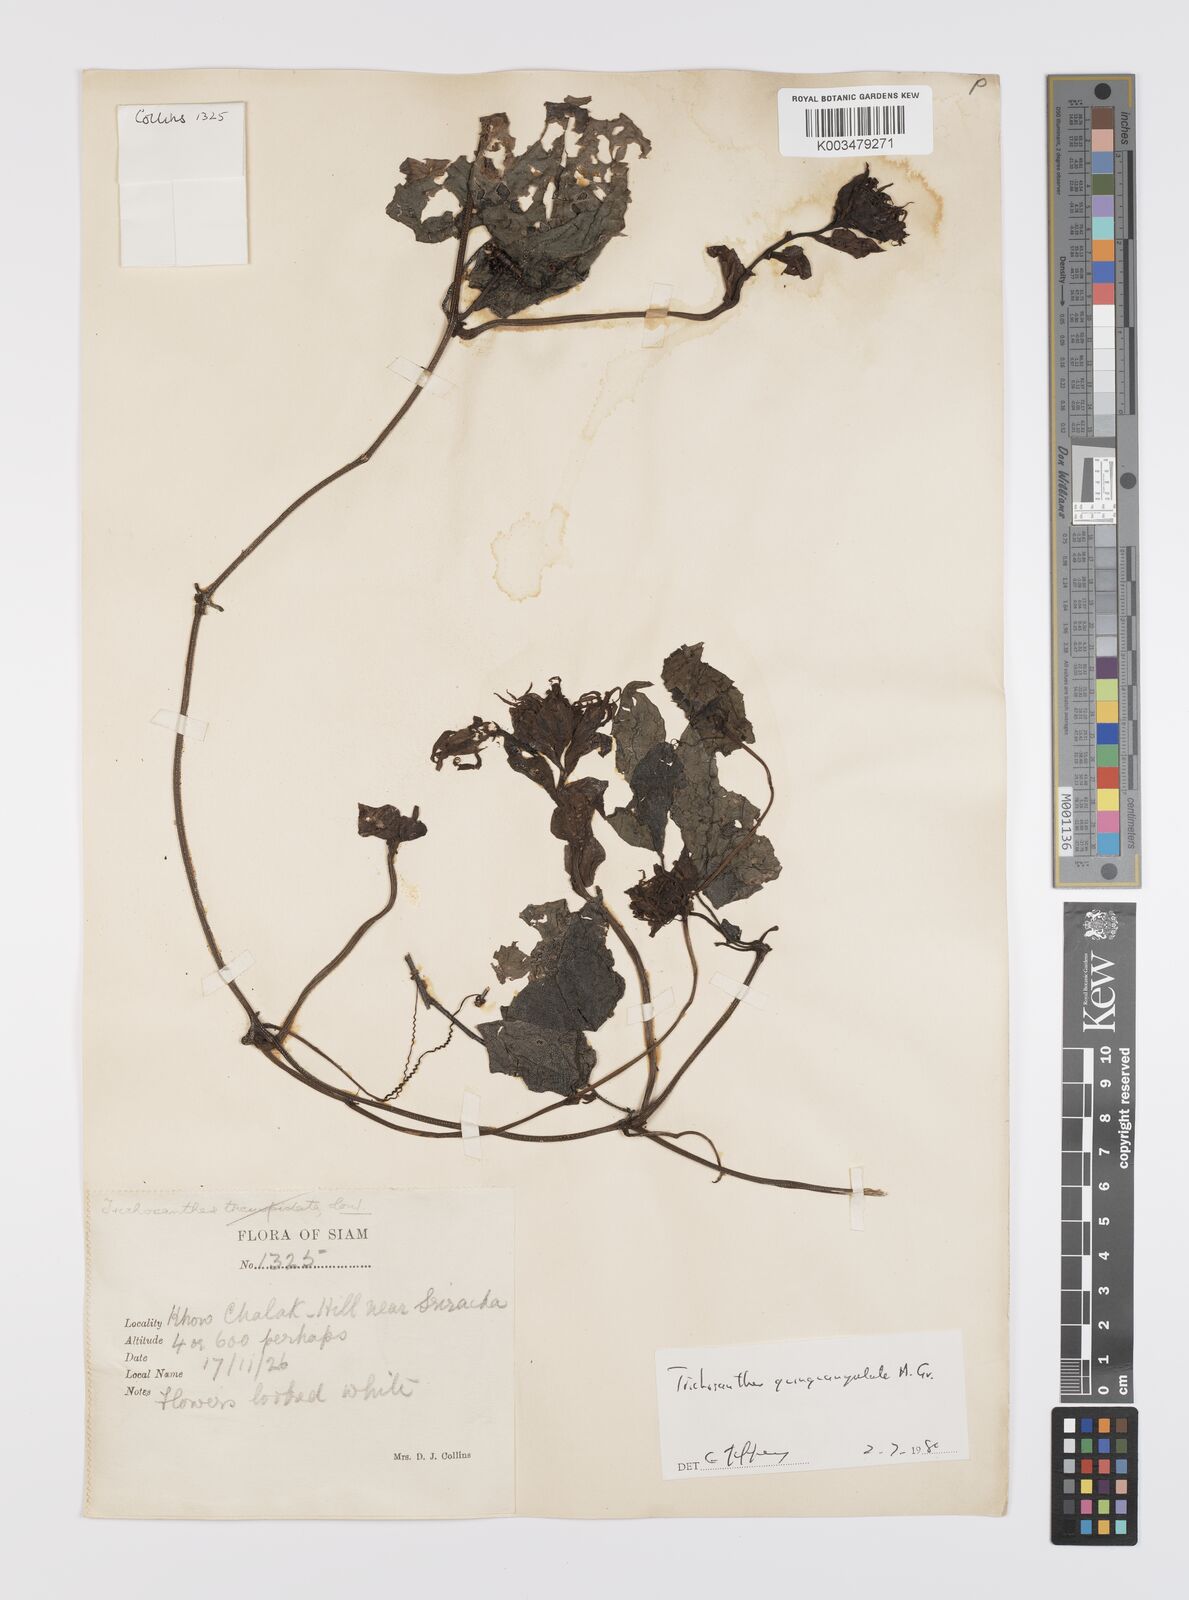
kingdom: Plantae
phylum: Tracheophyta
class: Magnoliopsida
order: Cucurbitales
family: Cucurbitaceae
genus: Trichosanthes
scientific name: Trichosanthes quinquangulata
